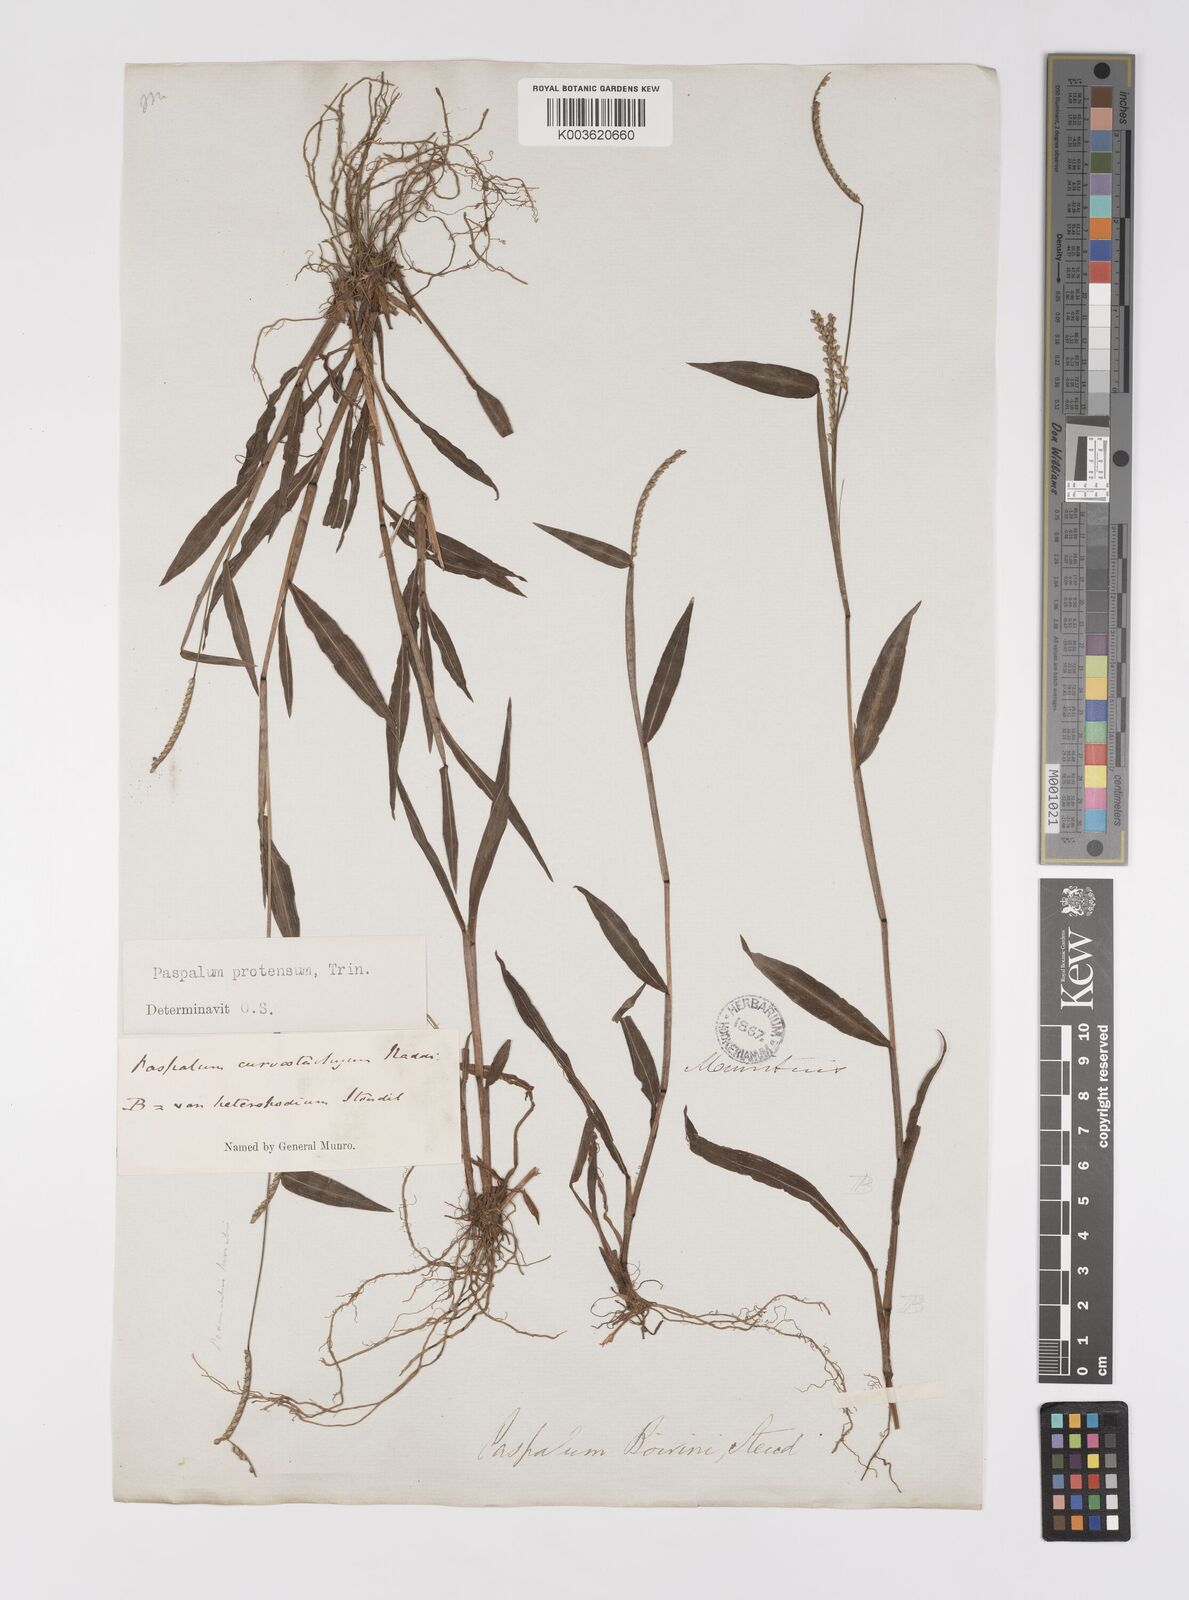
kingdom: Plantae
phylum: Tracheophyta
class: Liliopsida
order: Poales
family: Poaceae
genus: Paspalum
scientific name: Paspalum nutans
